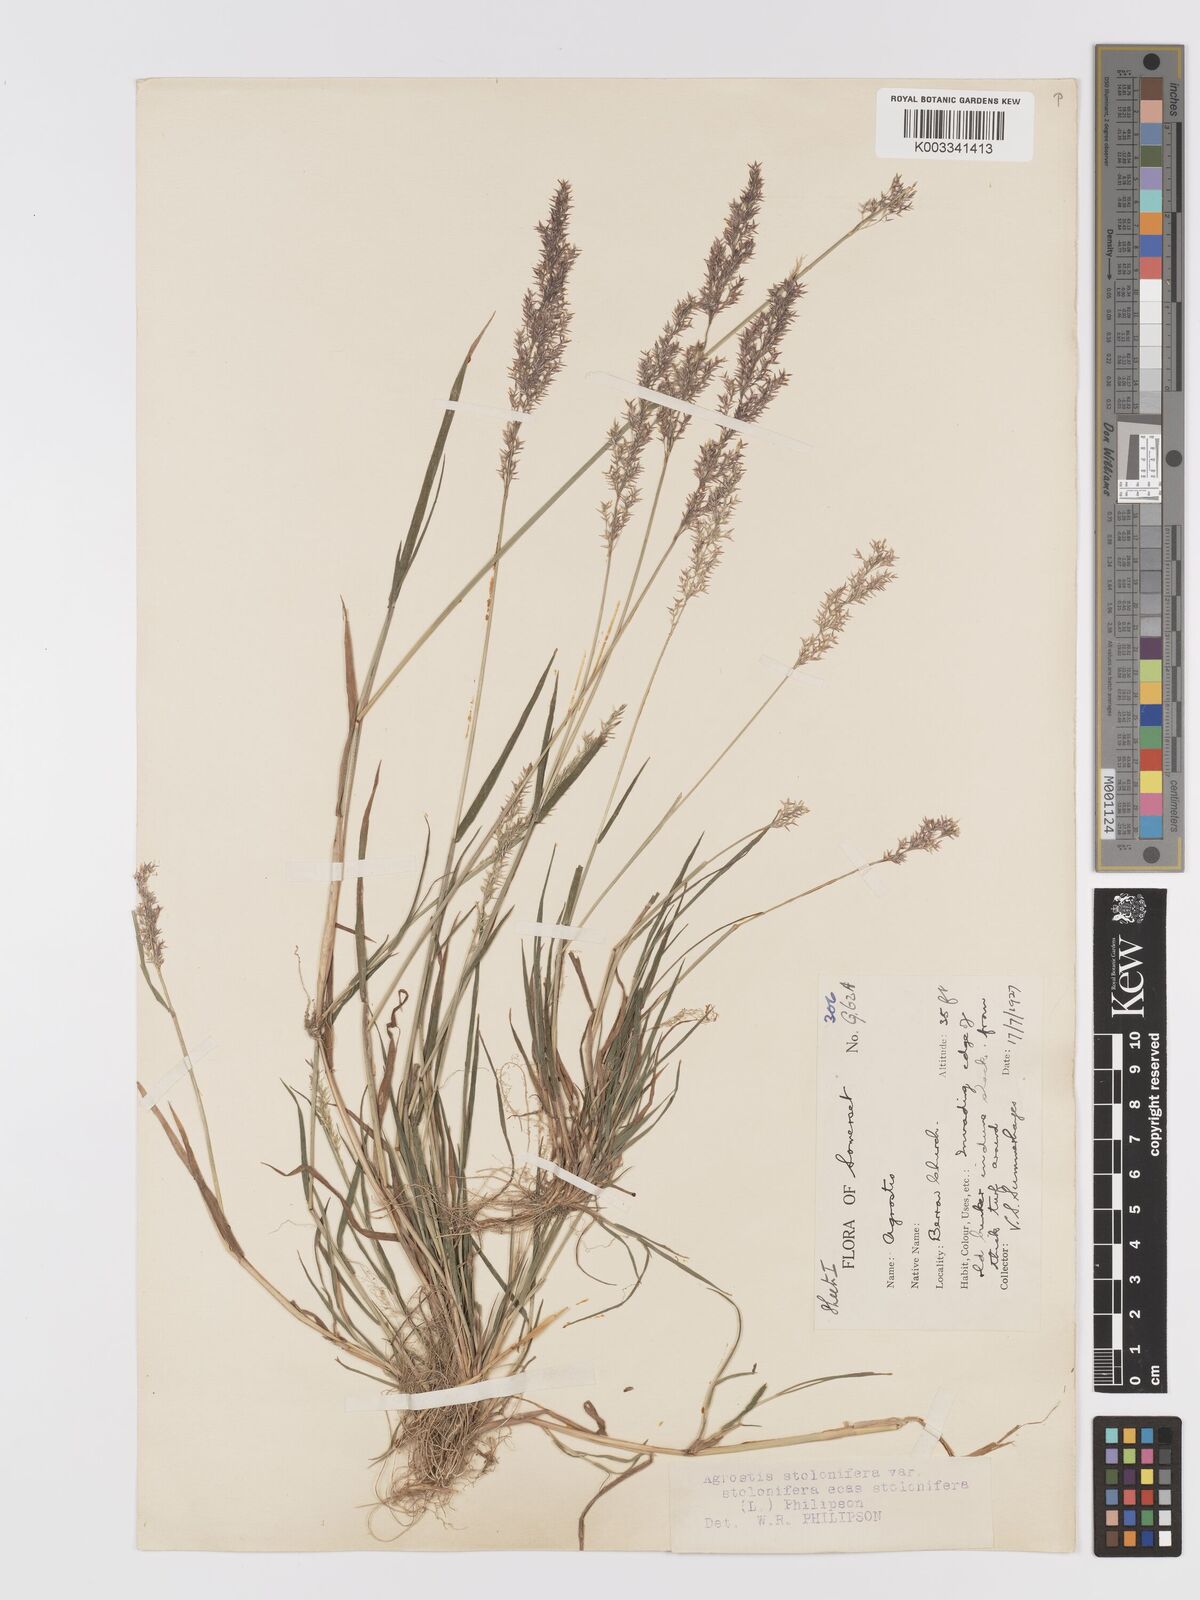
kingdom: Plantae
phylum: Tracheophyta
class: Liliopsida
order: Poales
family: Poaceae
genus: Agrostis
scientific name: Agrostis stolonifera
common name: Creeping bentgrass
